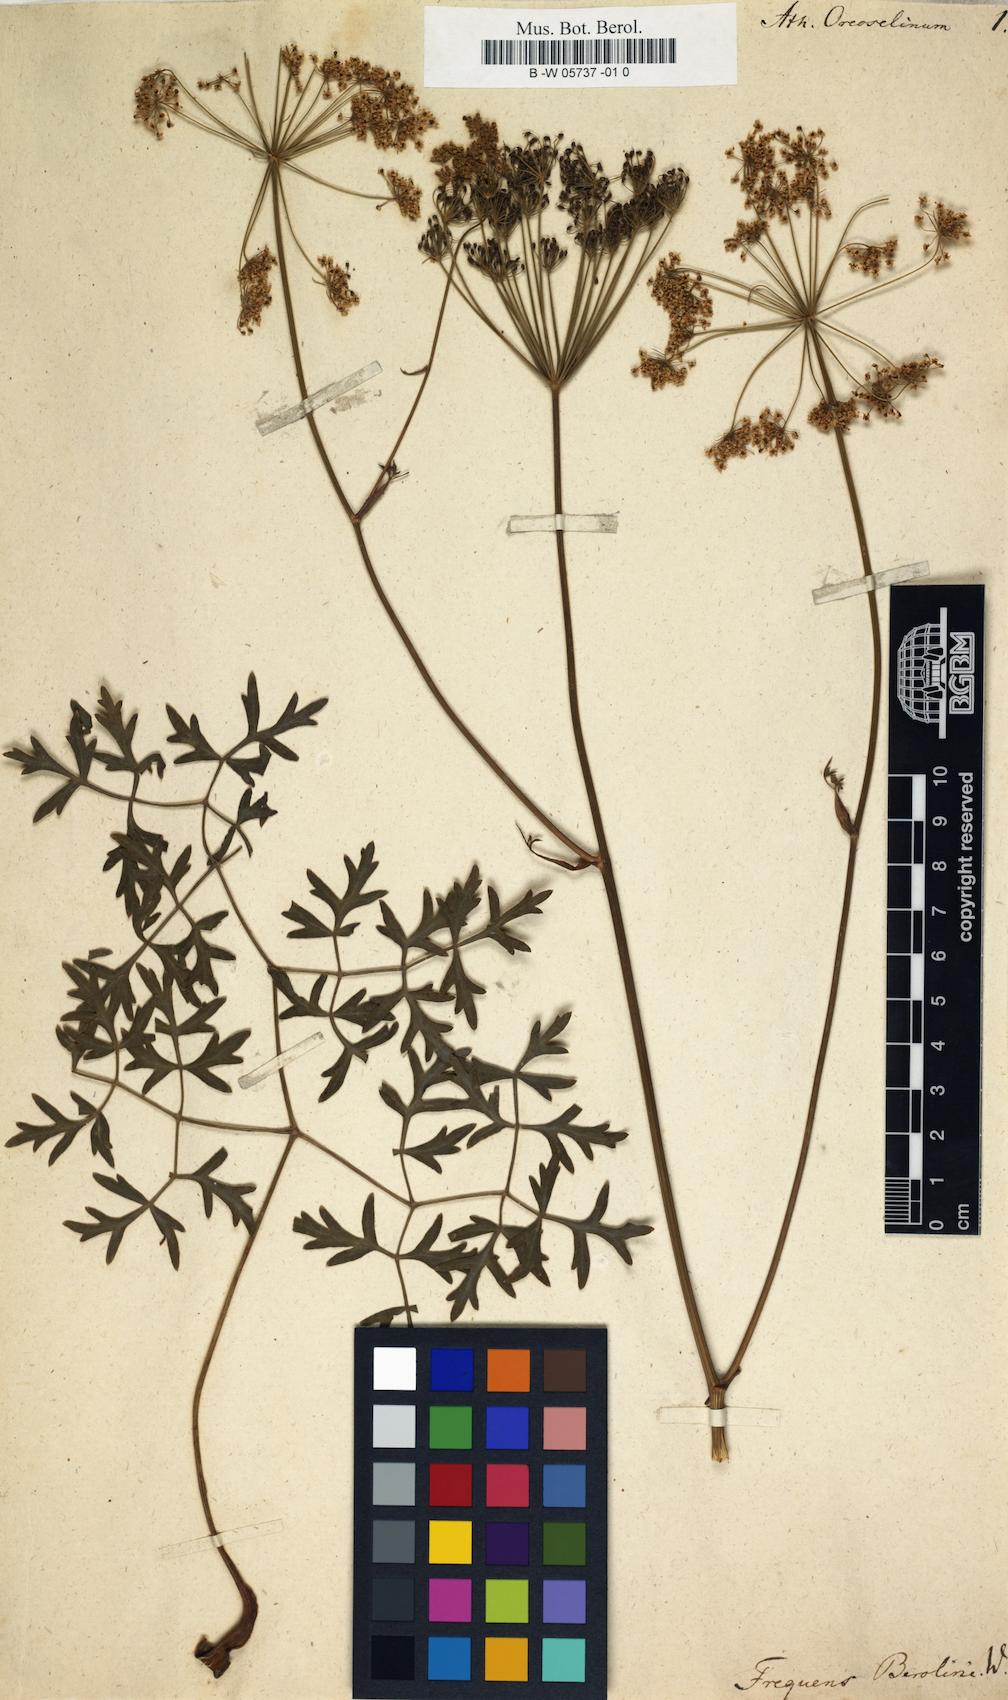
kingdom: Plantae
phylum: Tracheophyta
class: Magnoliopsida
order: Apiales
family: Apiaceae
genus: Oreoselinum
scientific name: Oreoselinum nigrum
